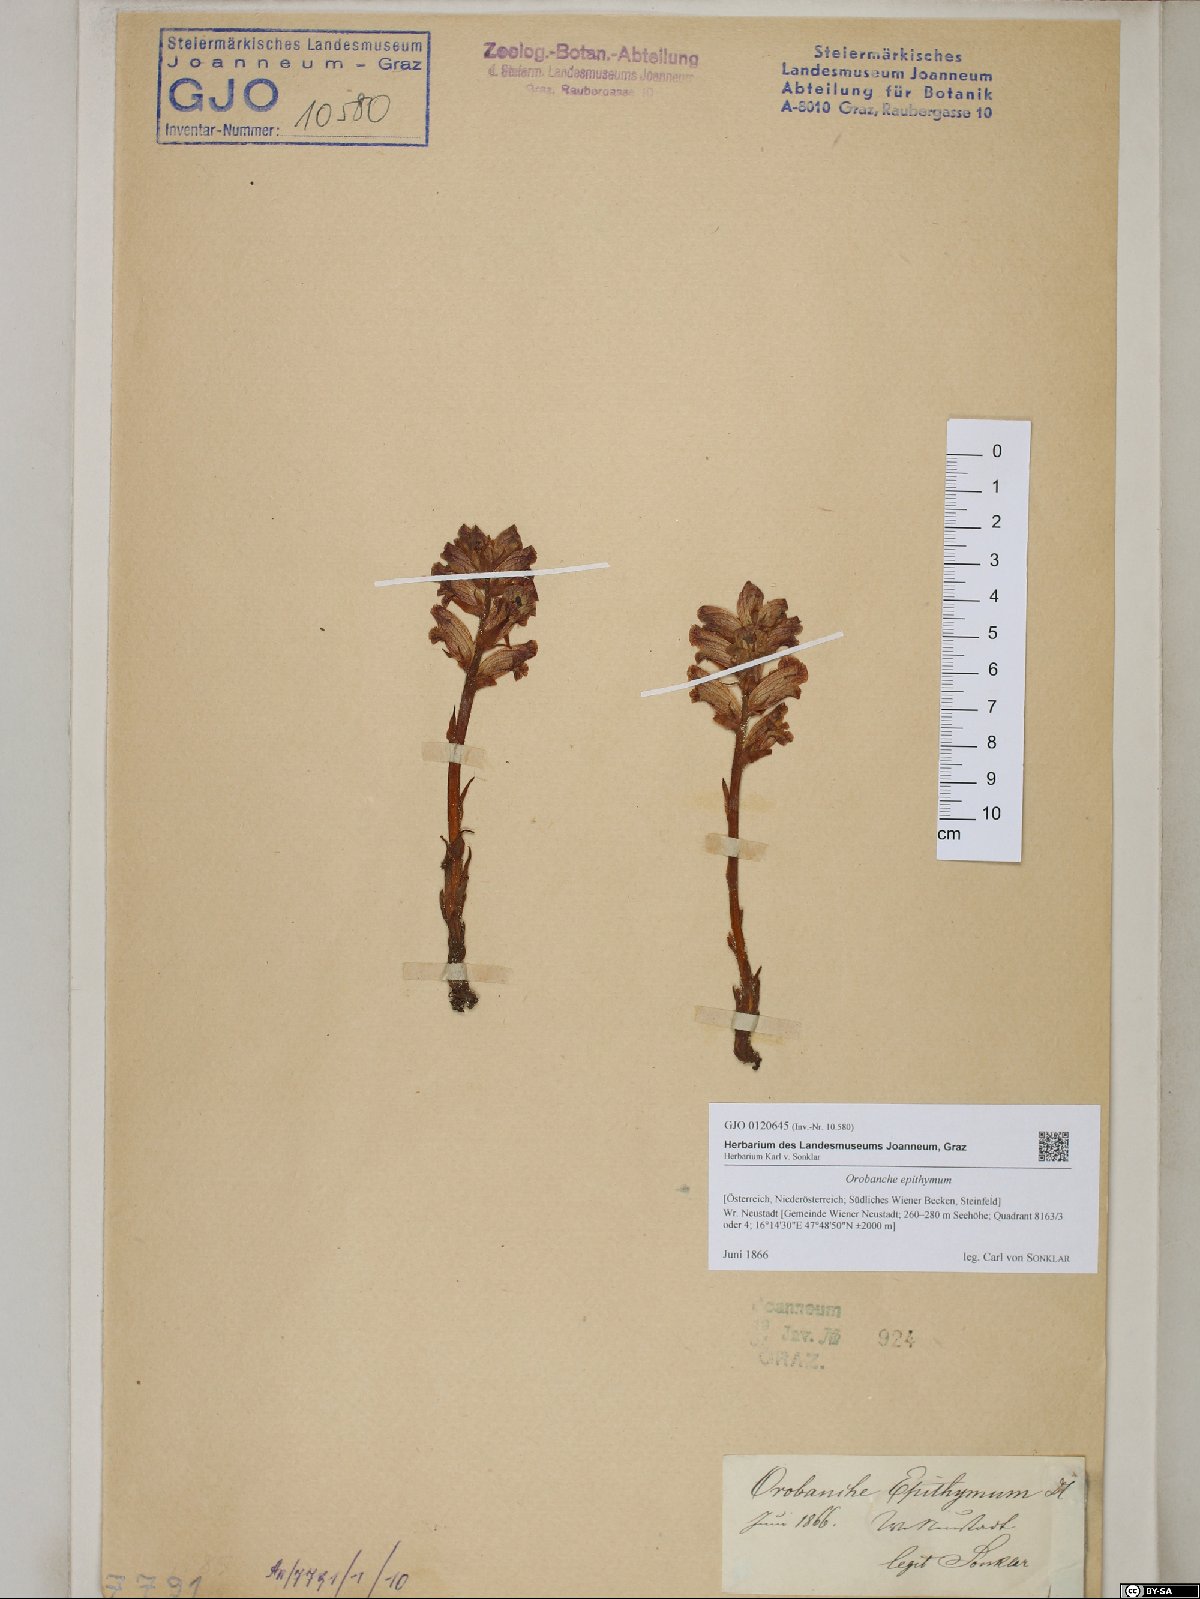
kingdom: Plantae
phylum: Tracheophyta
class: Magnoliopsida
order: Lamiales
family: Orobanchaceae
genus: Orobanche
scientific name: Orobanche alba
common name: Thyme broomrape
